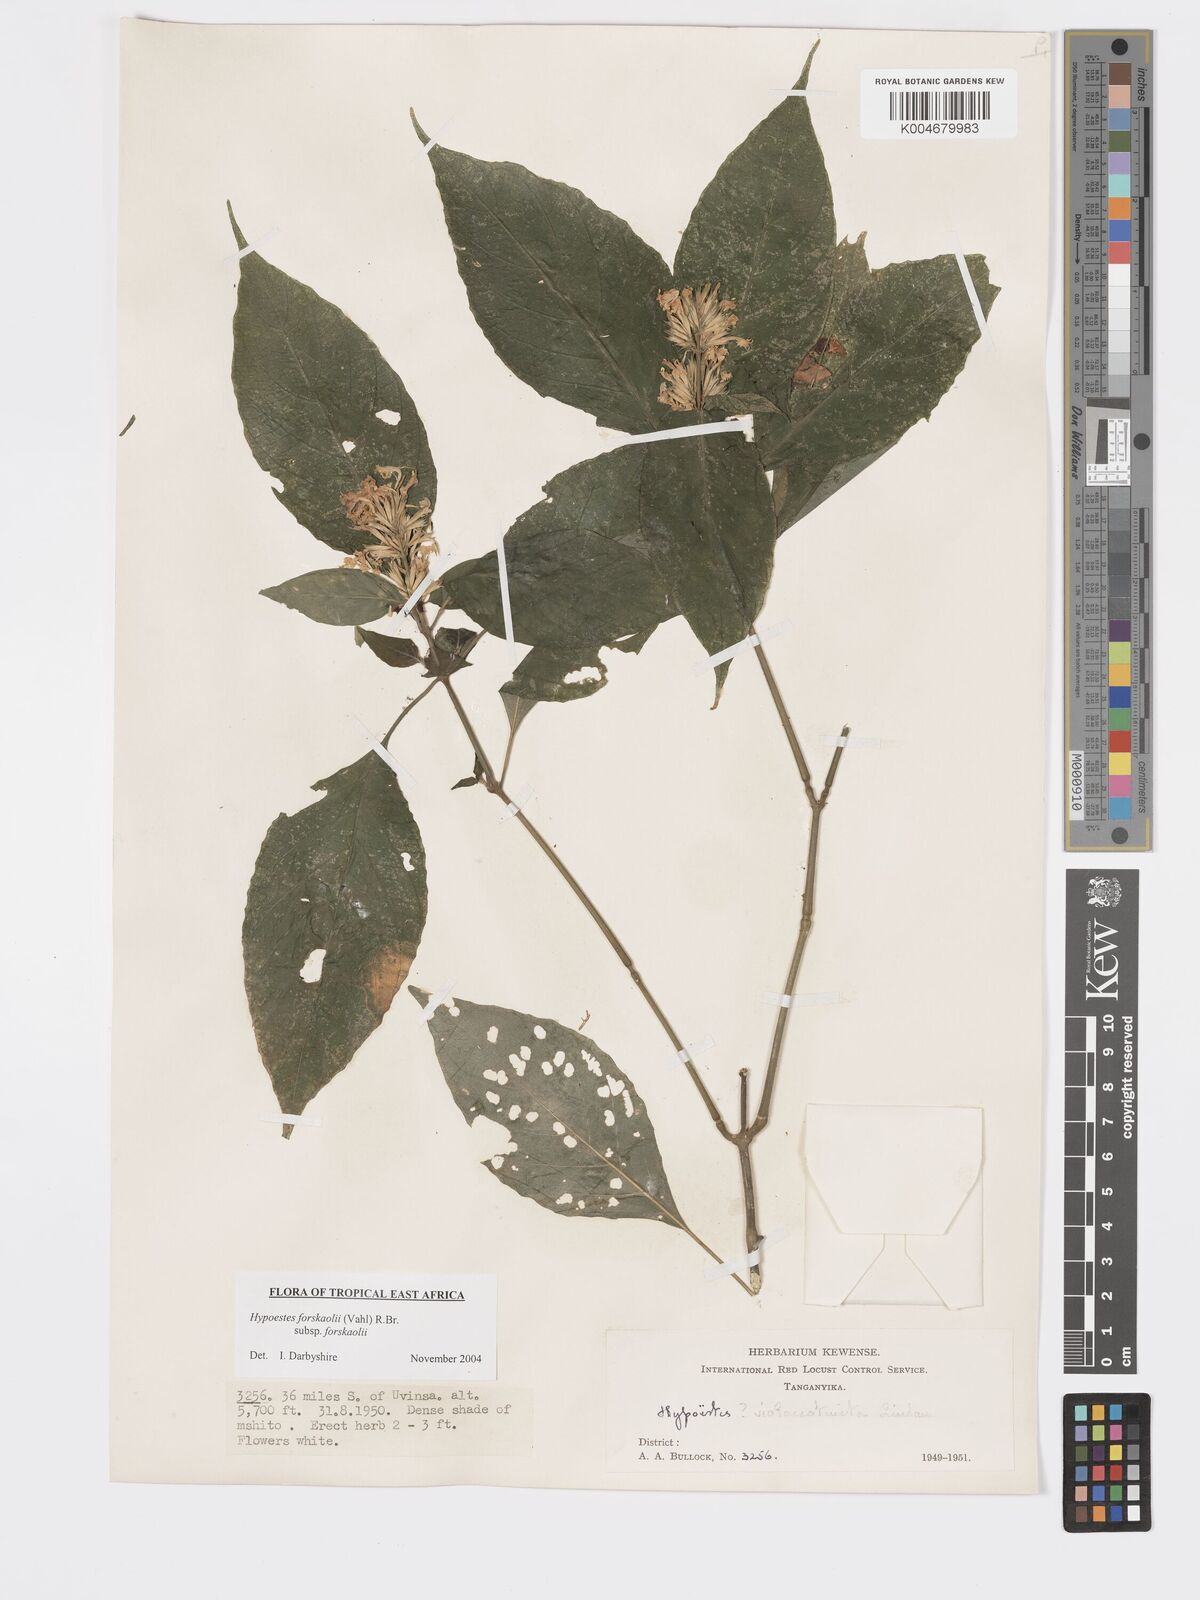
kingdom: Plantae
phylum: Tracheophyta
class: Magnoliopsida
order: Lamiales
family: Acanthaceae
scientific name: Acanthaceae
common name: Acanthaceae
